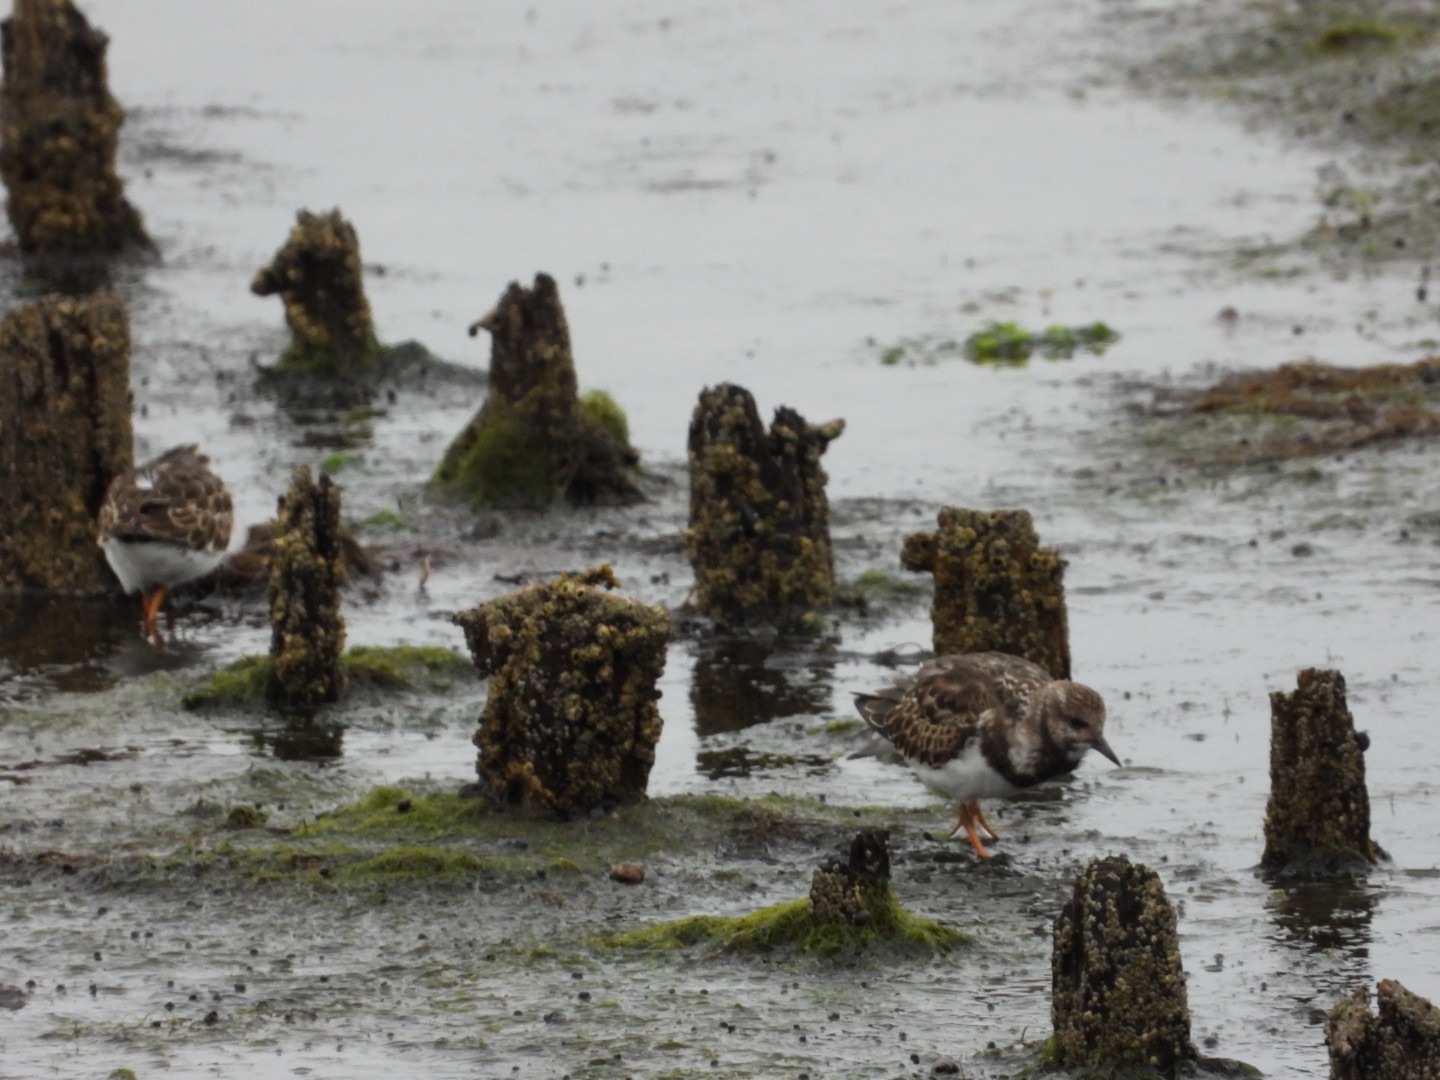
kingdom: Animalia
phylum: Chordata
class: Aves
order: Charadriiformes
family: Scolopacidae
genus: Arenaria
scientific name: Arenaria interpres
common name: Stenvender
